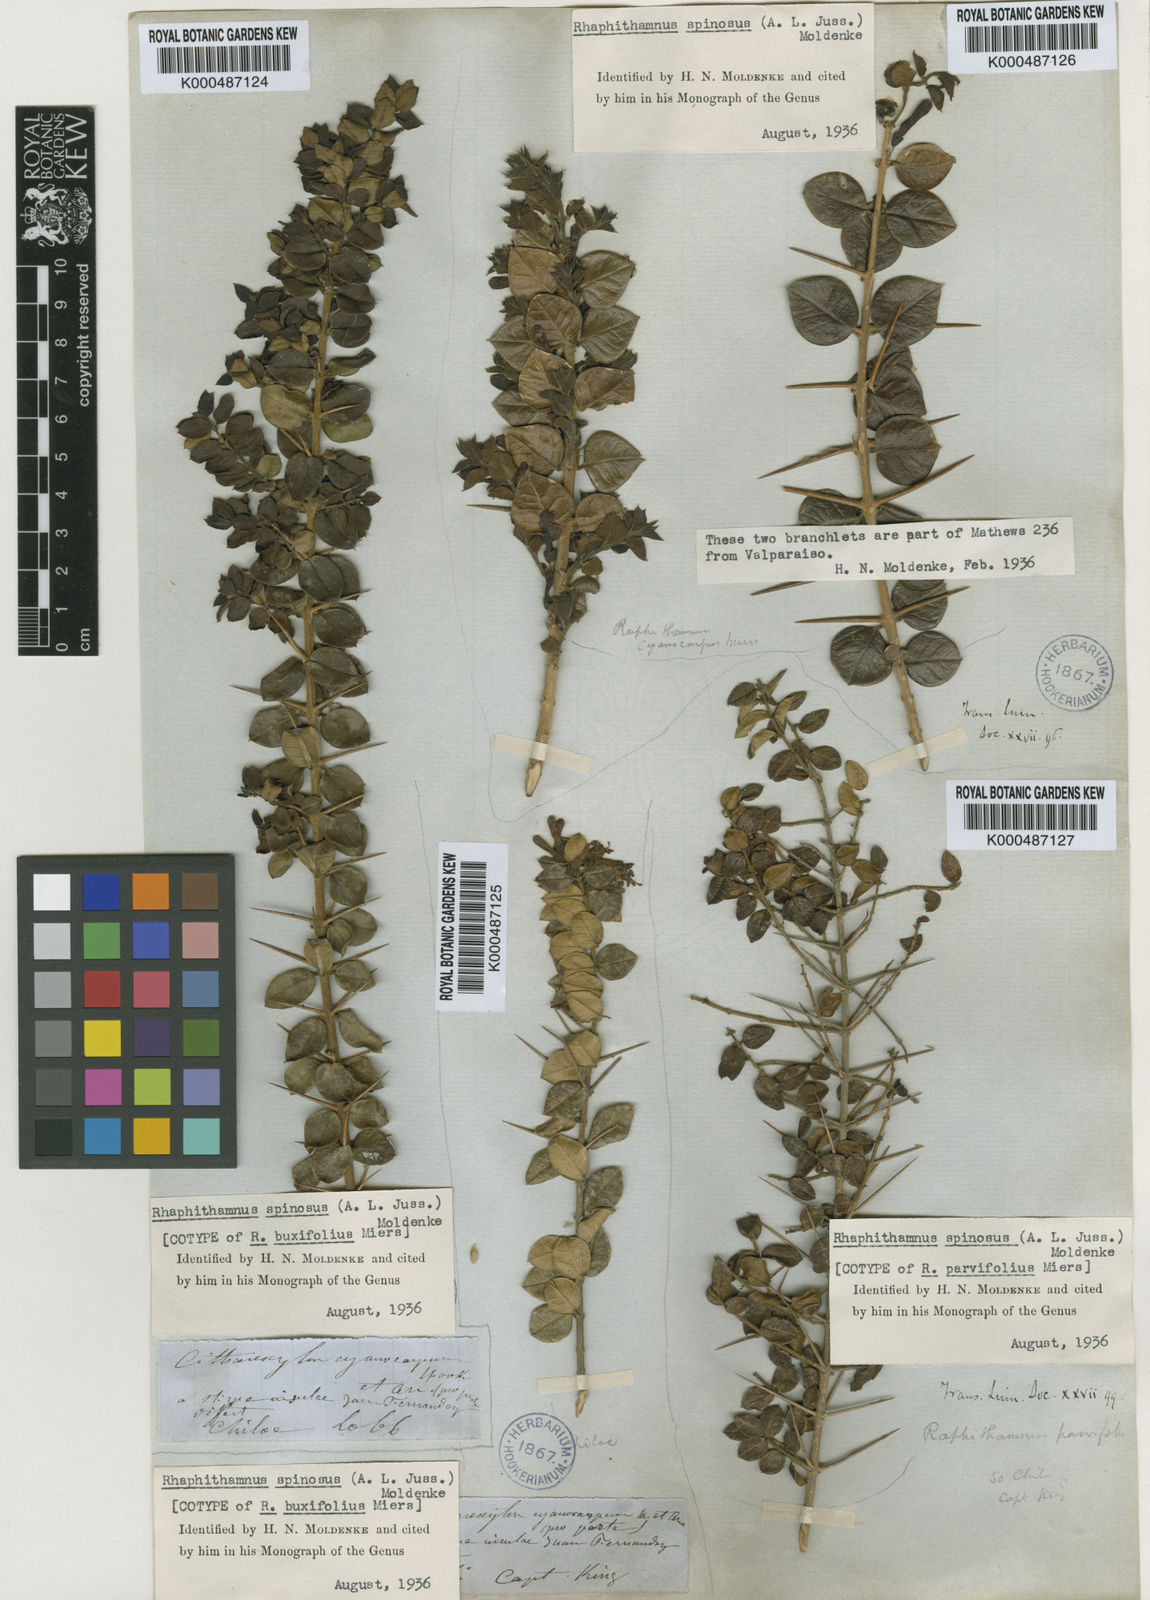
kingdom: Plantae
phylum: Tracheophyta
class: Magnoliopsida
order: Lamiales
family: Verbenaceae
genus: Rhaphithamnus
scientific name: Rhaphithamnus spinosus
